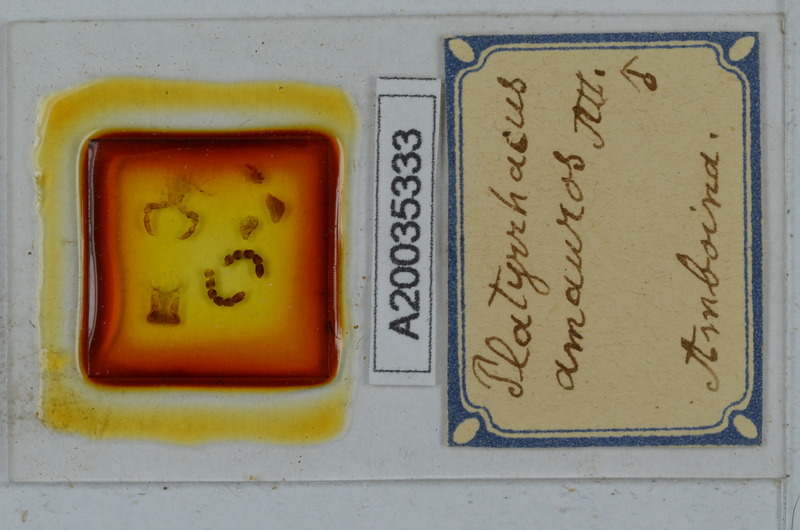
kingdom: Animalia
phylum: Arthropoda
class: Diplopoda
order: Polydesmida
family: Platyrhacidae
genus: Platyrhacus
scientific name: Platyrhacus amauros
